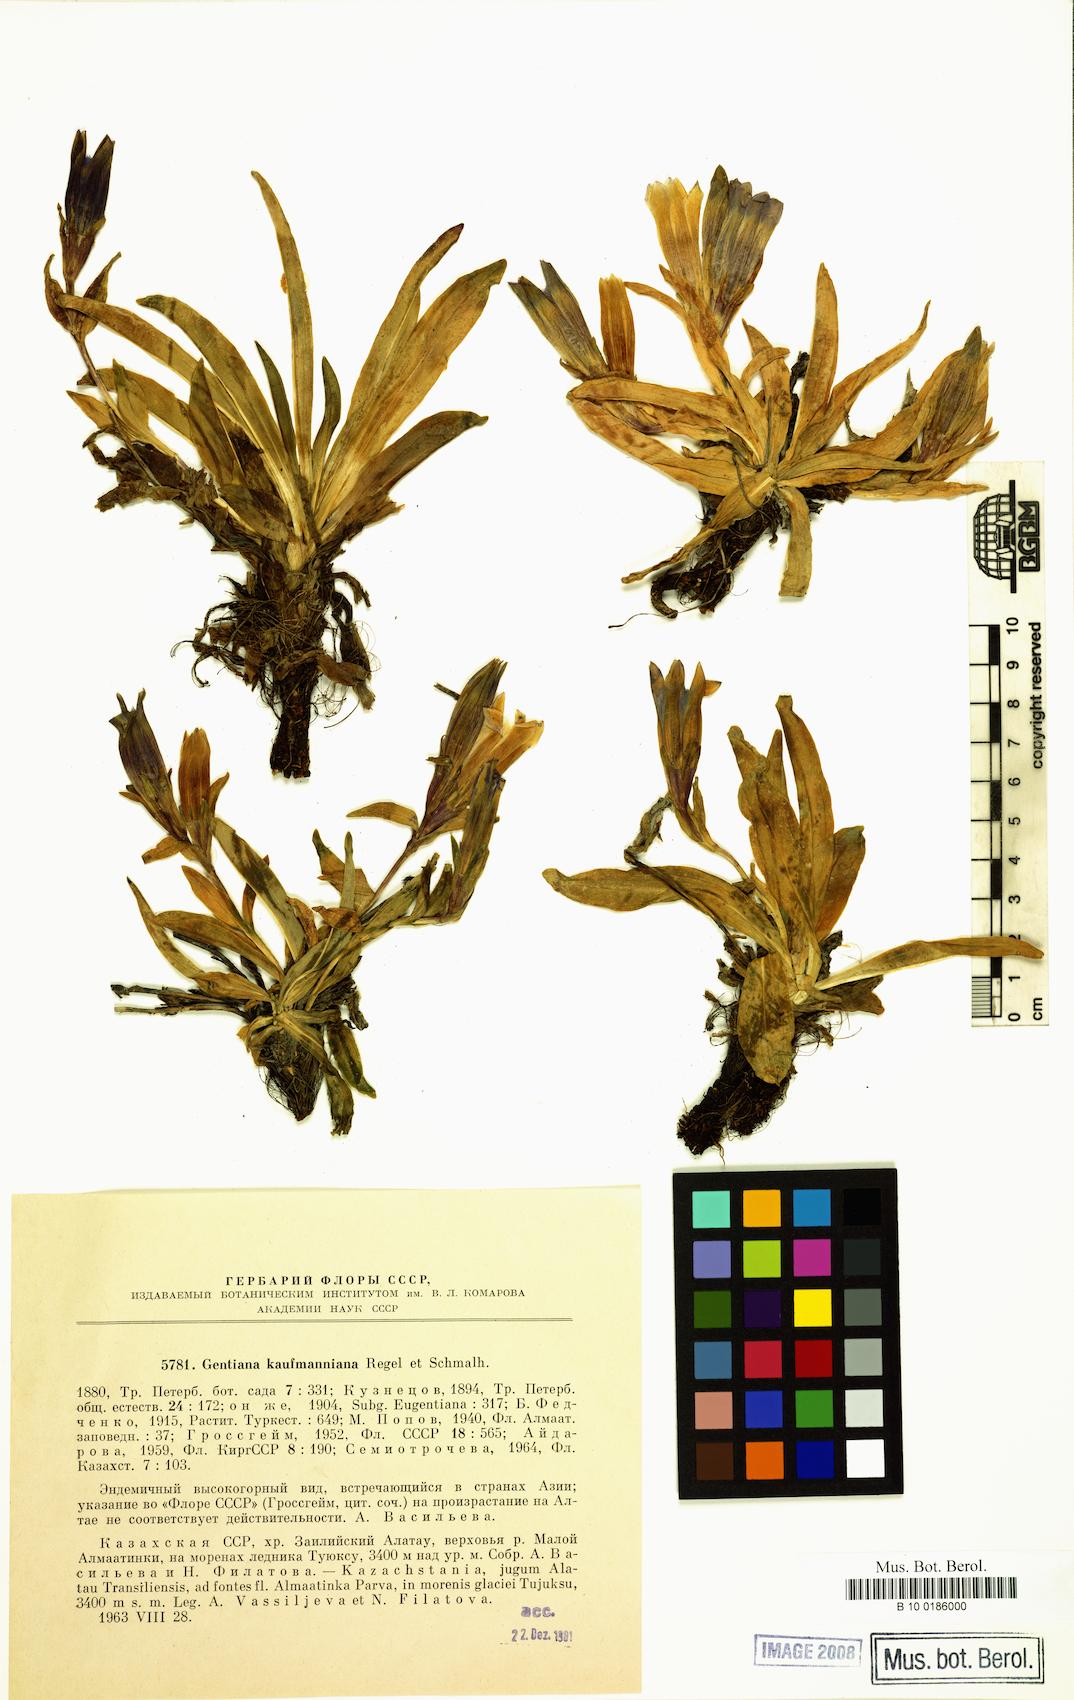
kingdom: Plantae
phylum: Tracheophyta
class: Magnoliopsida
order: Gentianales
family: Gentianaceae
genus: Gentiana
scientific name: Gentiana kauffmanniana
